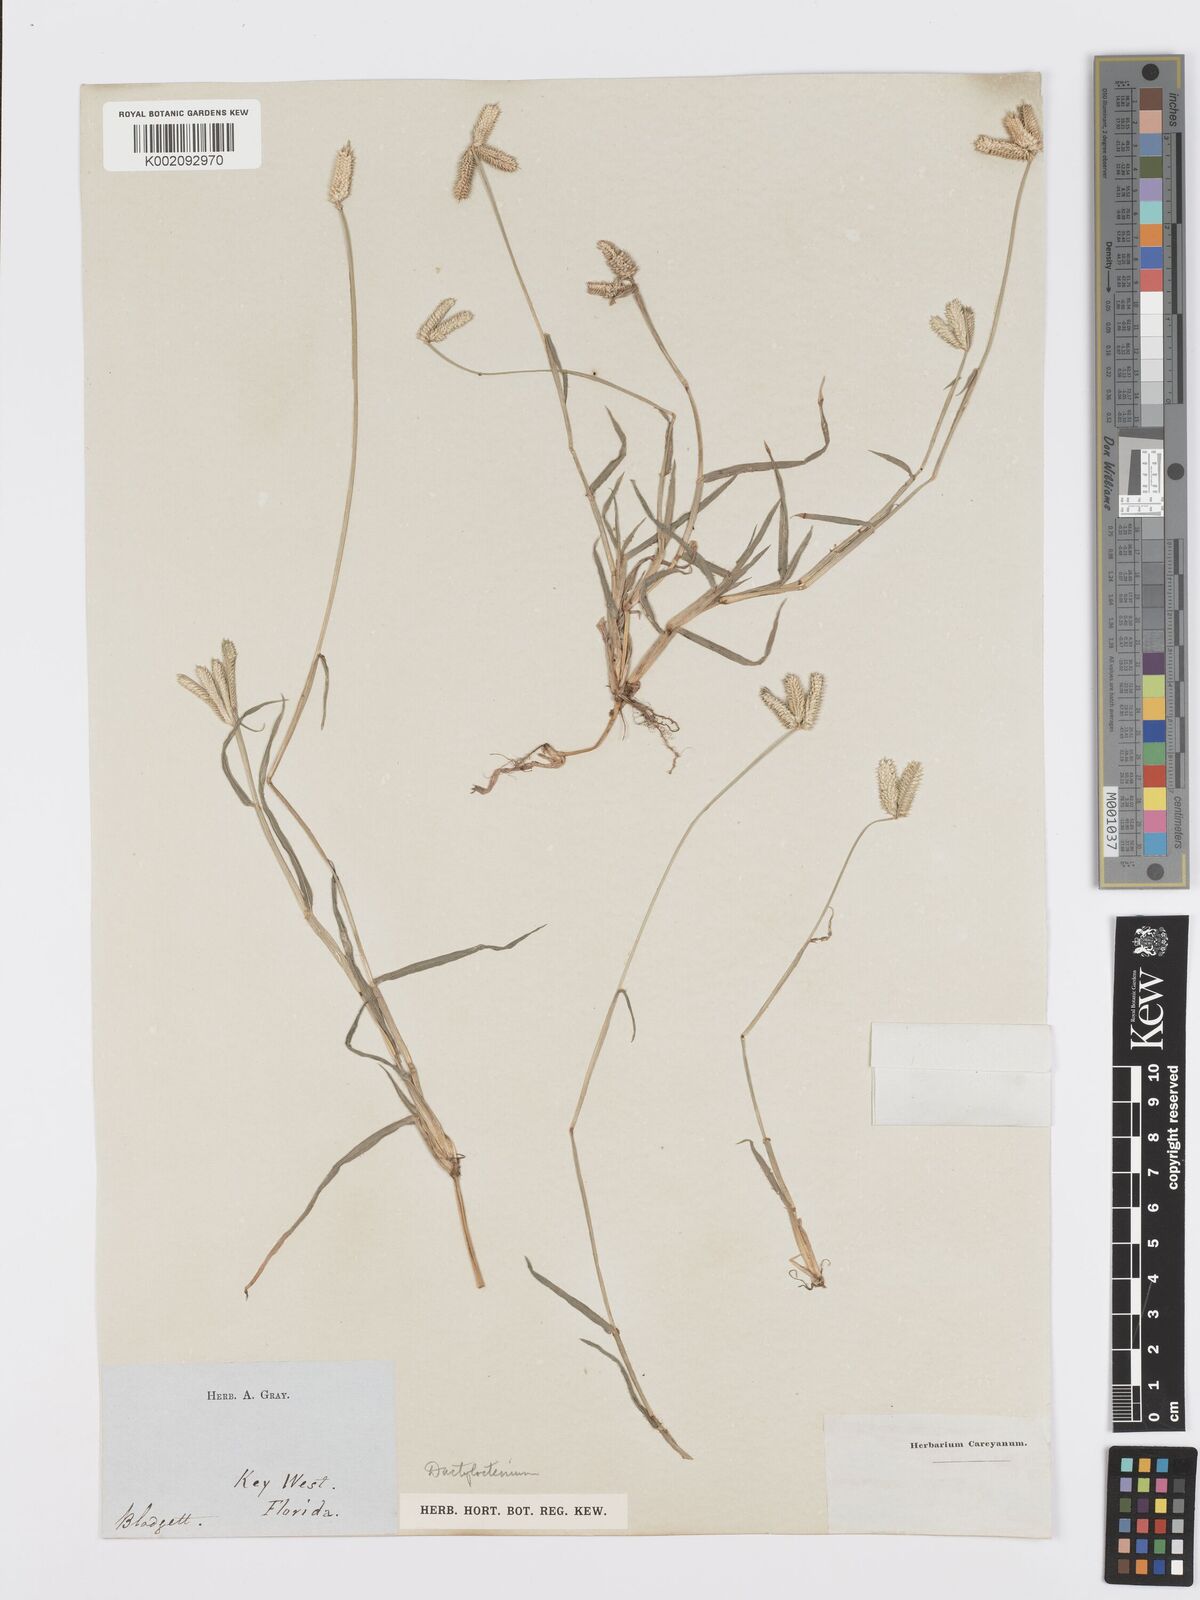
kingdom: Plantae
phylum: Tracheophyta
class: Liliopsida
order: Poales
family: Poaceae
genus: Dactyloctenium
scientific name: Dactyloctenium aegyptium
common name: Egyptian grass
